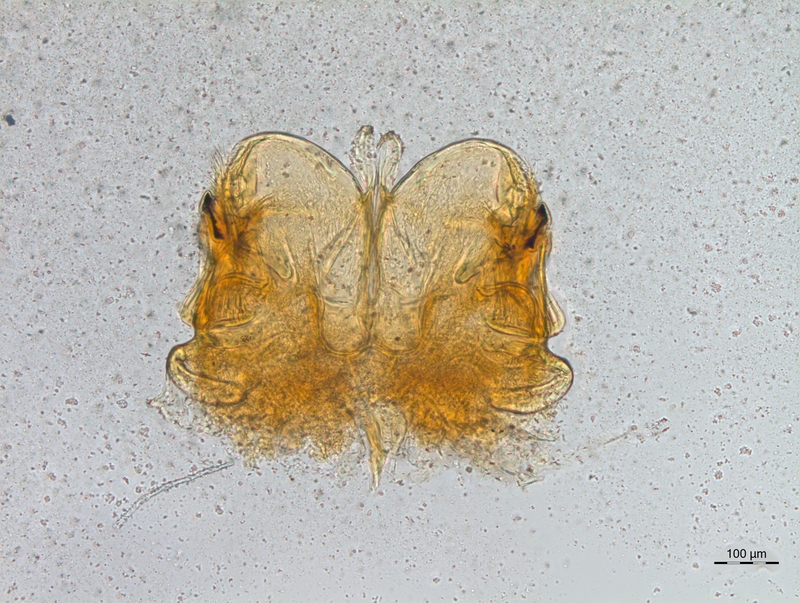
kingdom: Animalia
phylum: Arthropoda
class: Diplopoda
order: Chordeumatida
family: Craspedosomatidae
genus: Craspedosoma
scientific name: Craspedosoma taurinorum
